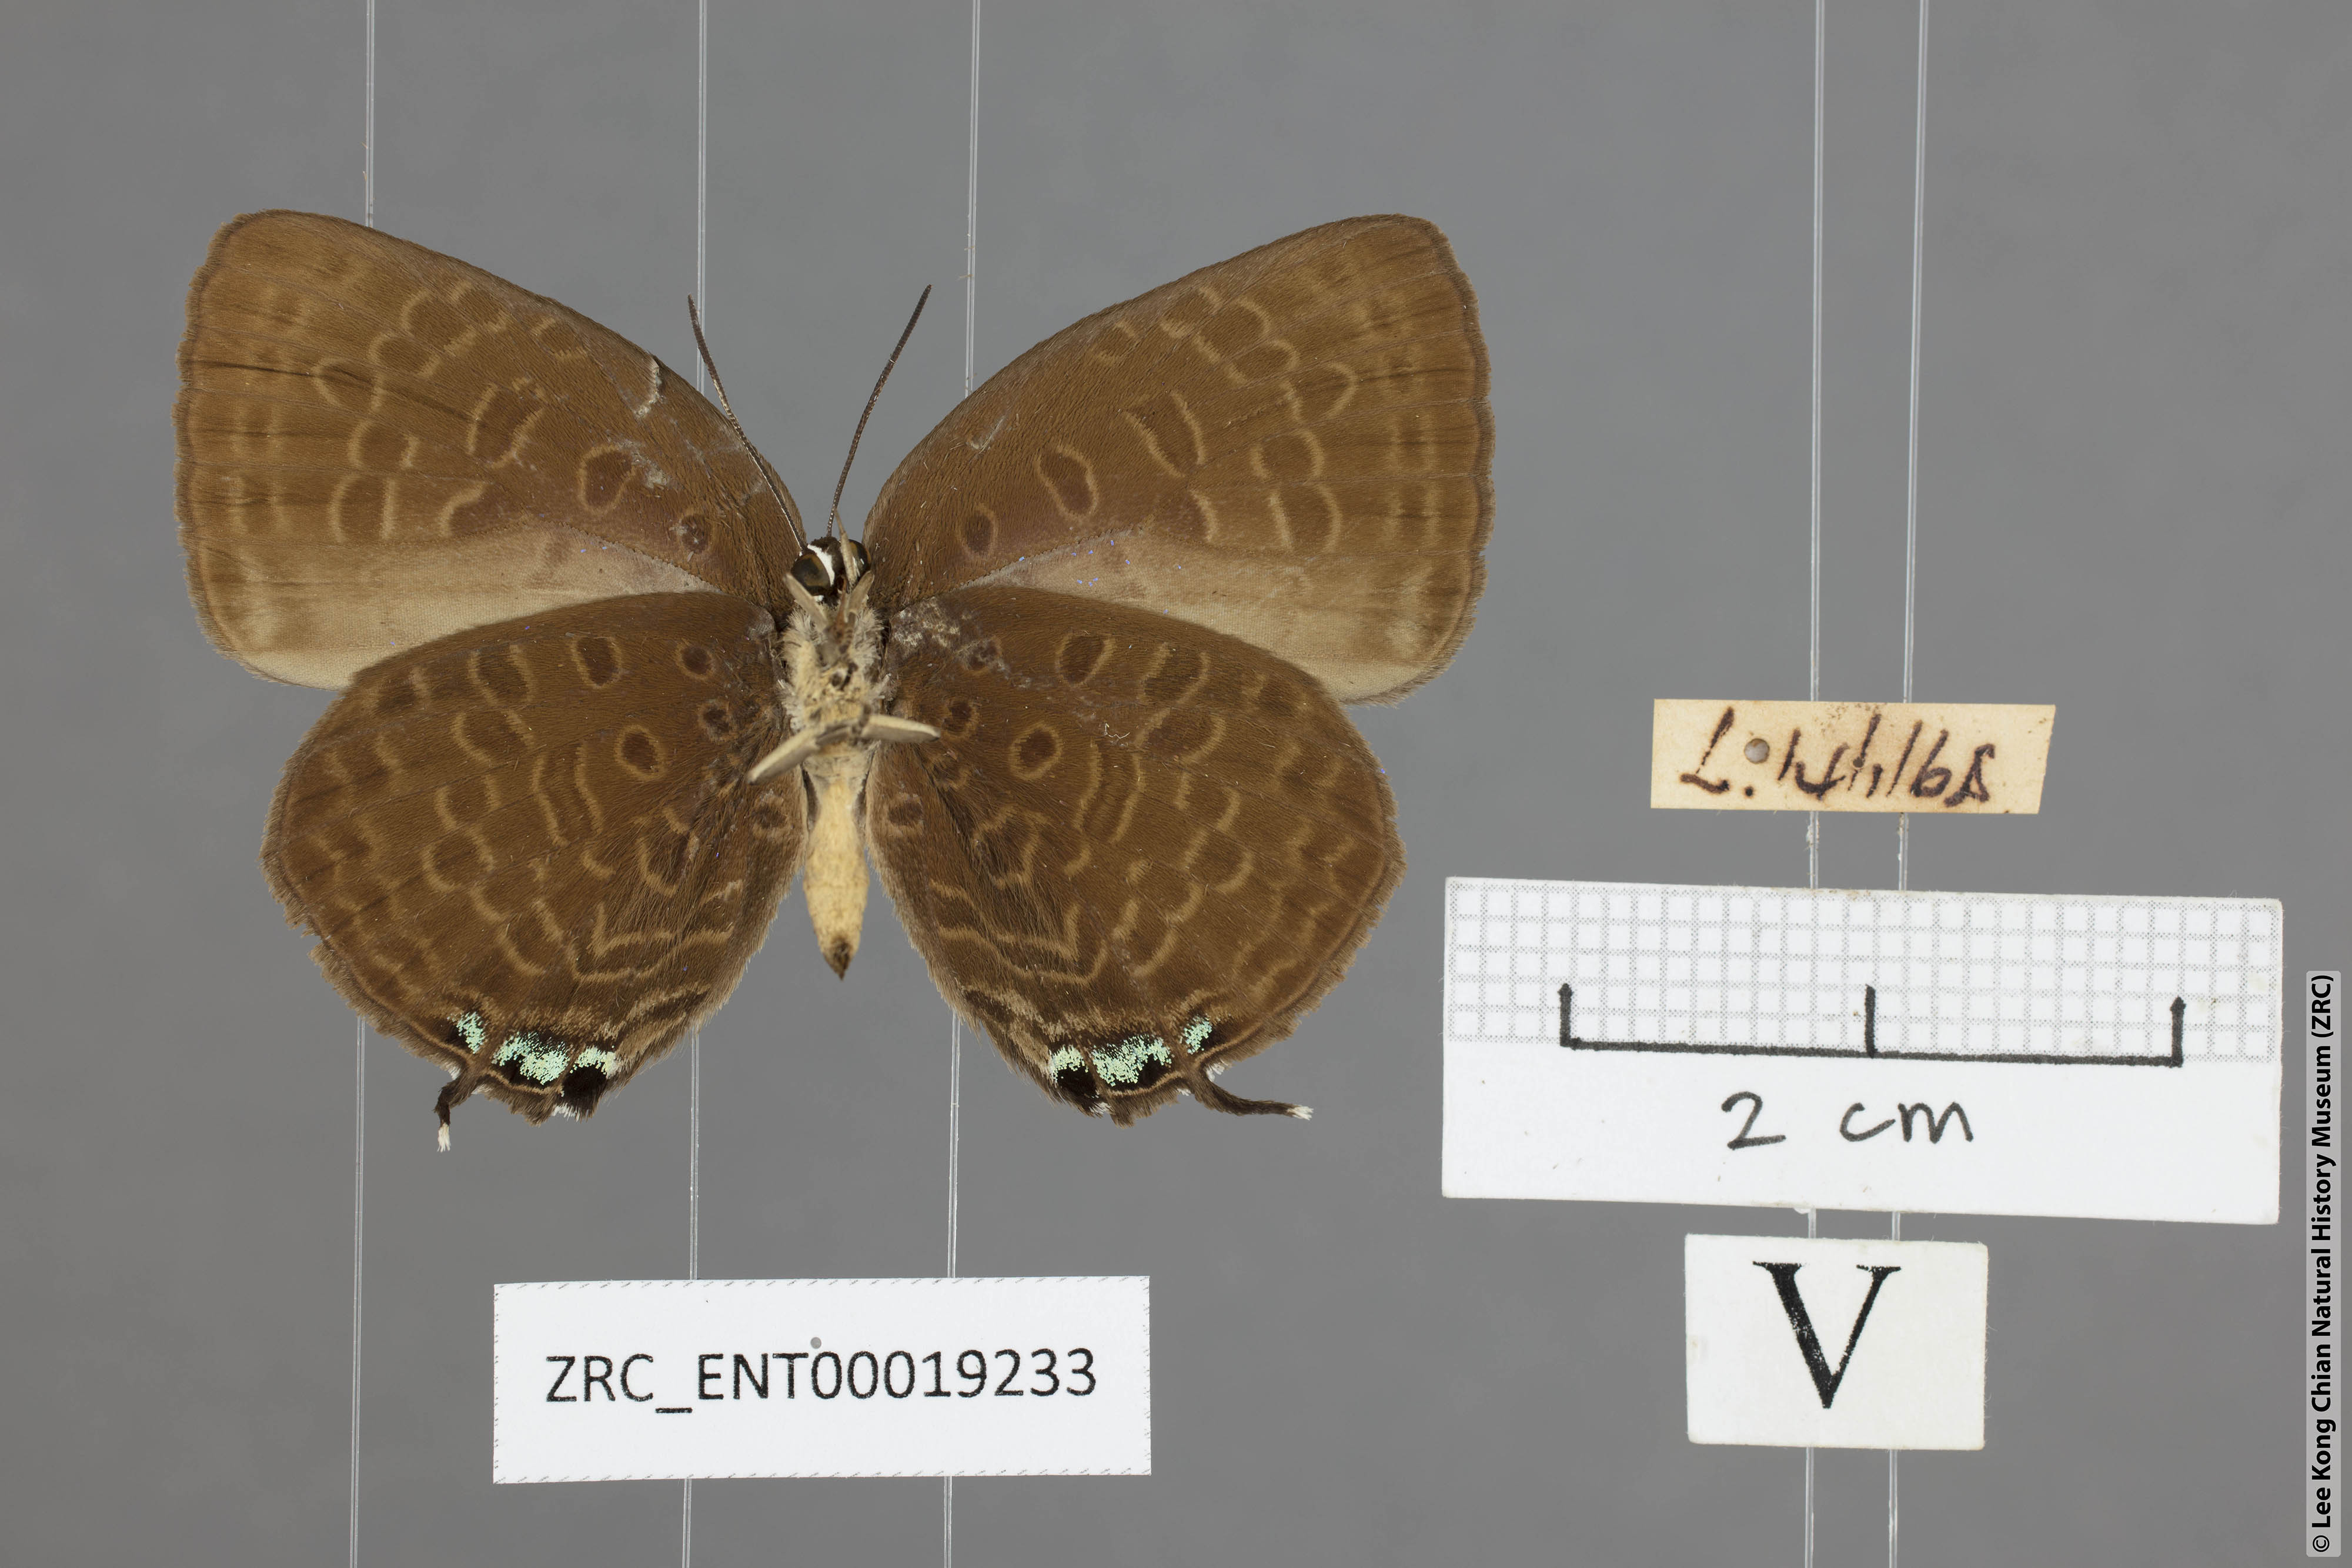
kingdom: Animalia
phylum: Arthropoda
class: Insecta
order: Lepidoptera
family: Lycaenidae
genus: Arhopala
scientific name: Arhopala atosia
